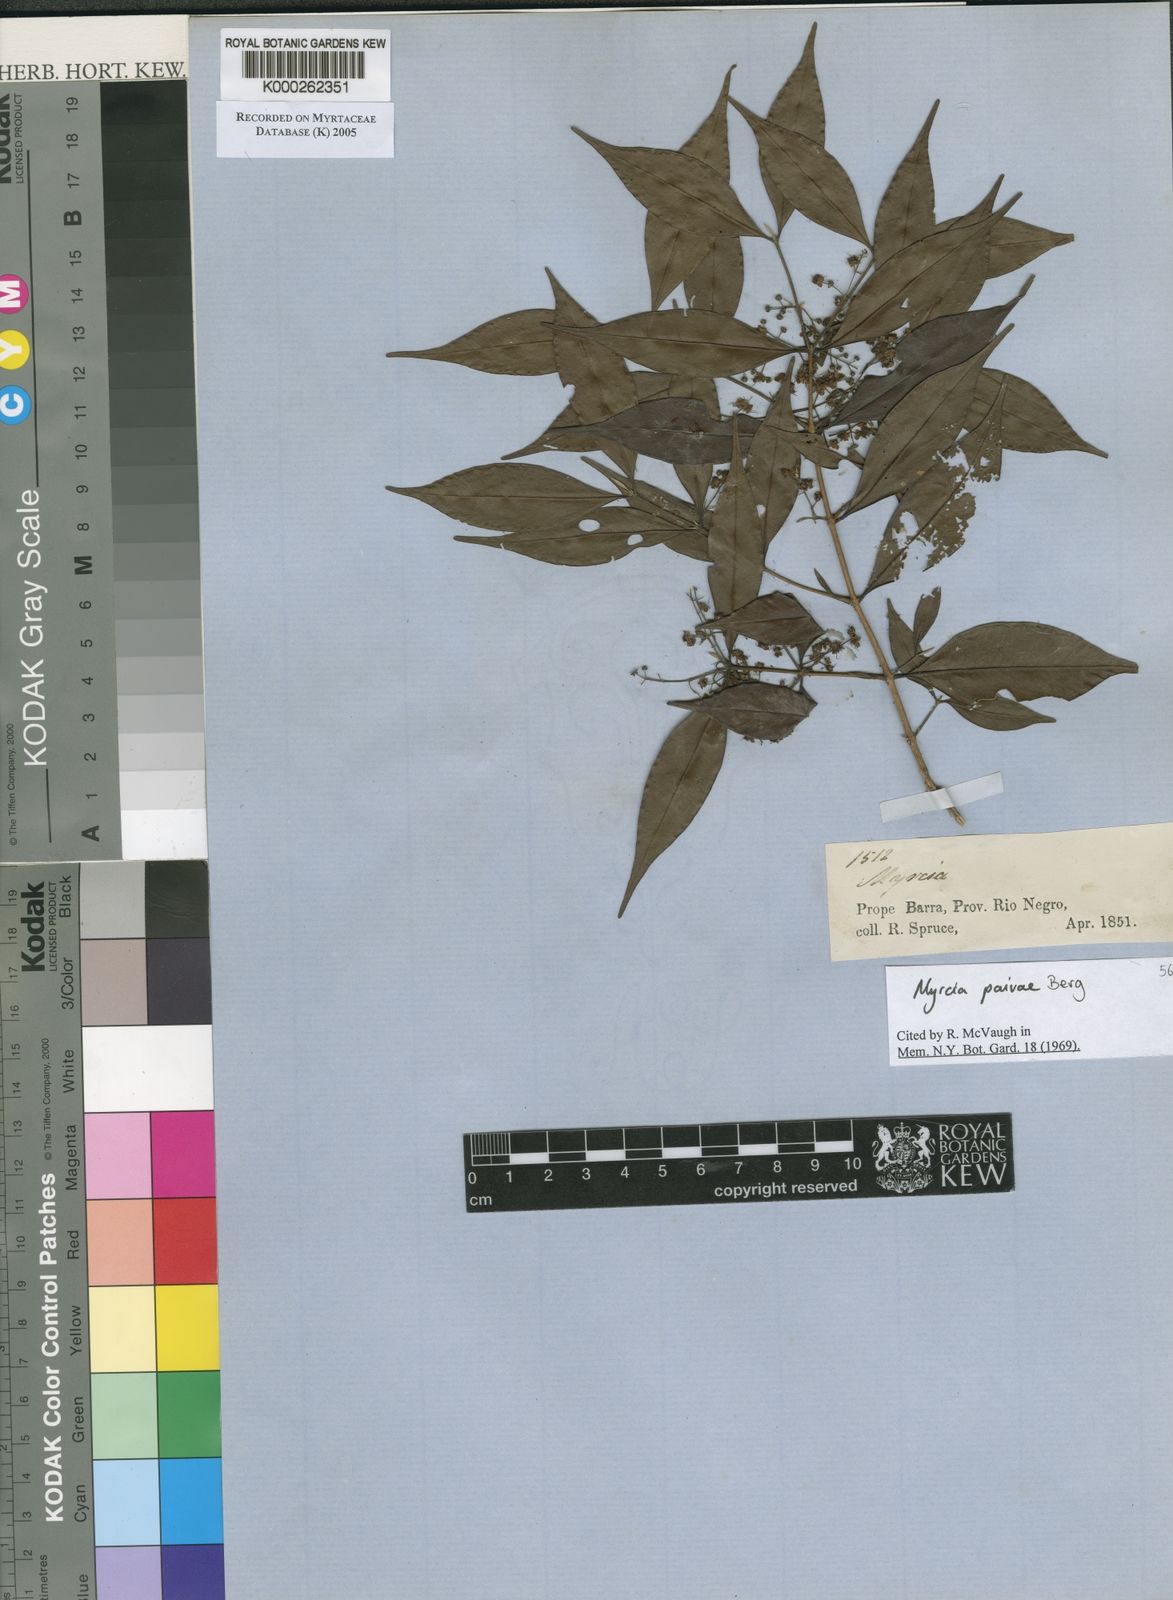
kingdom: Plantae
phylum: Tracheophyta
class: Magnoliopsida
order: Myrtales
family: Myrtaceae
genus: Myrcia
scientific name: Myrcia paivae
